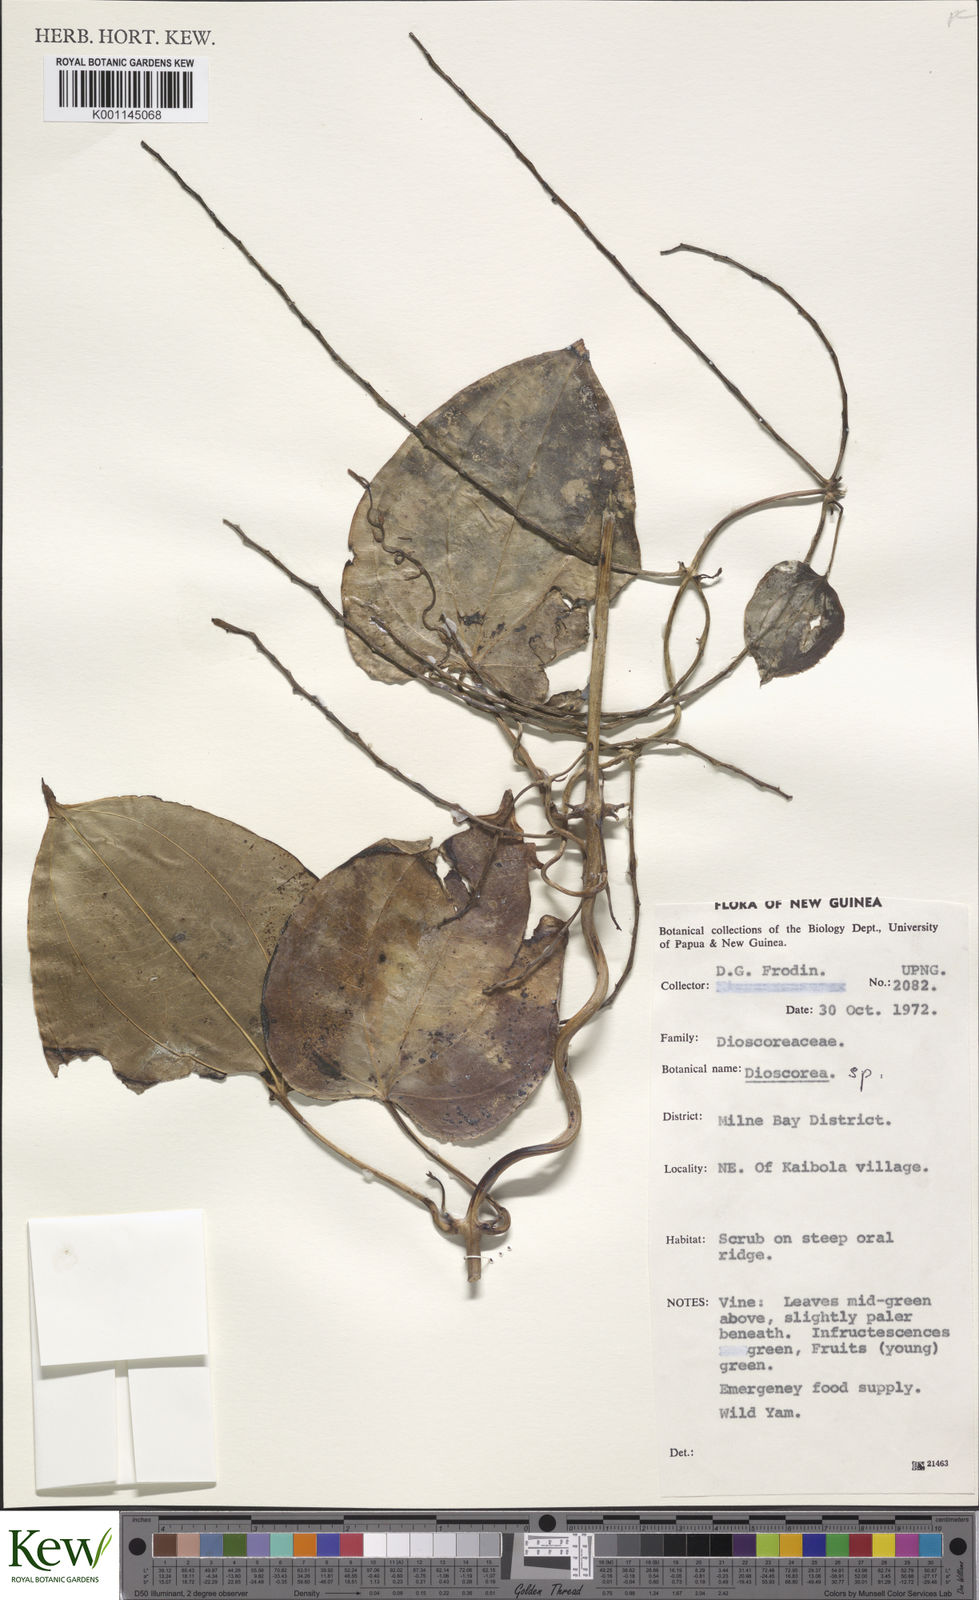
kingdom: Plantae
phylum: Tracheophyta
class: Liliopsida
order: Dioscoreales
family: Dioscoreaceae
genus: Dioscorea
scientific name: Dioscorea
